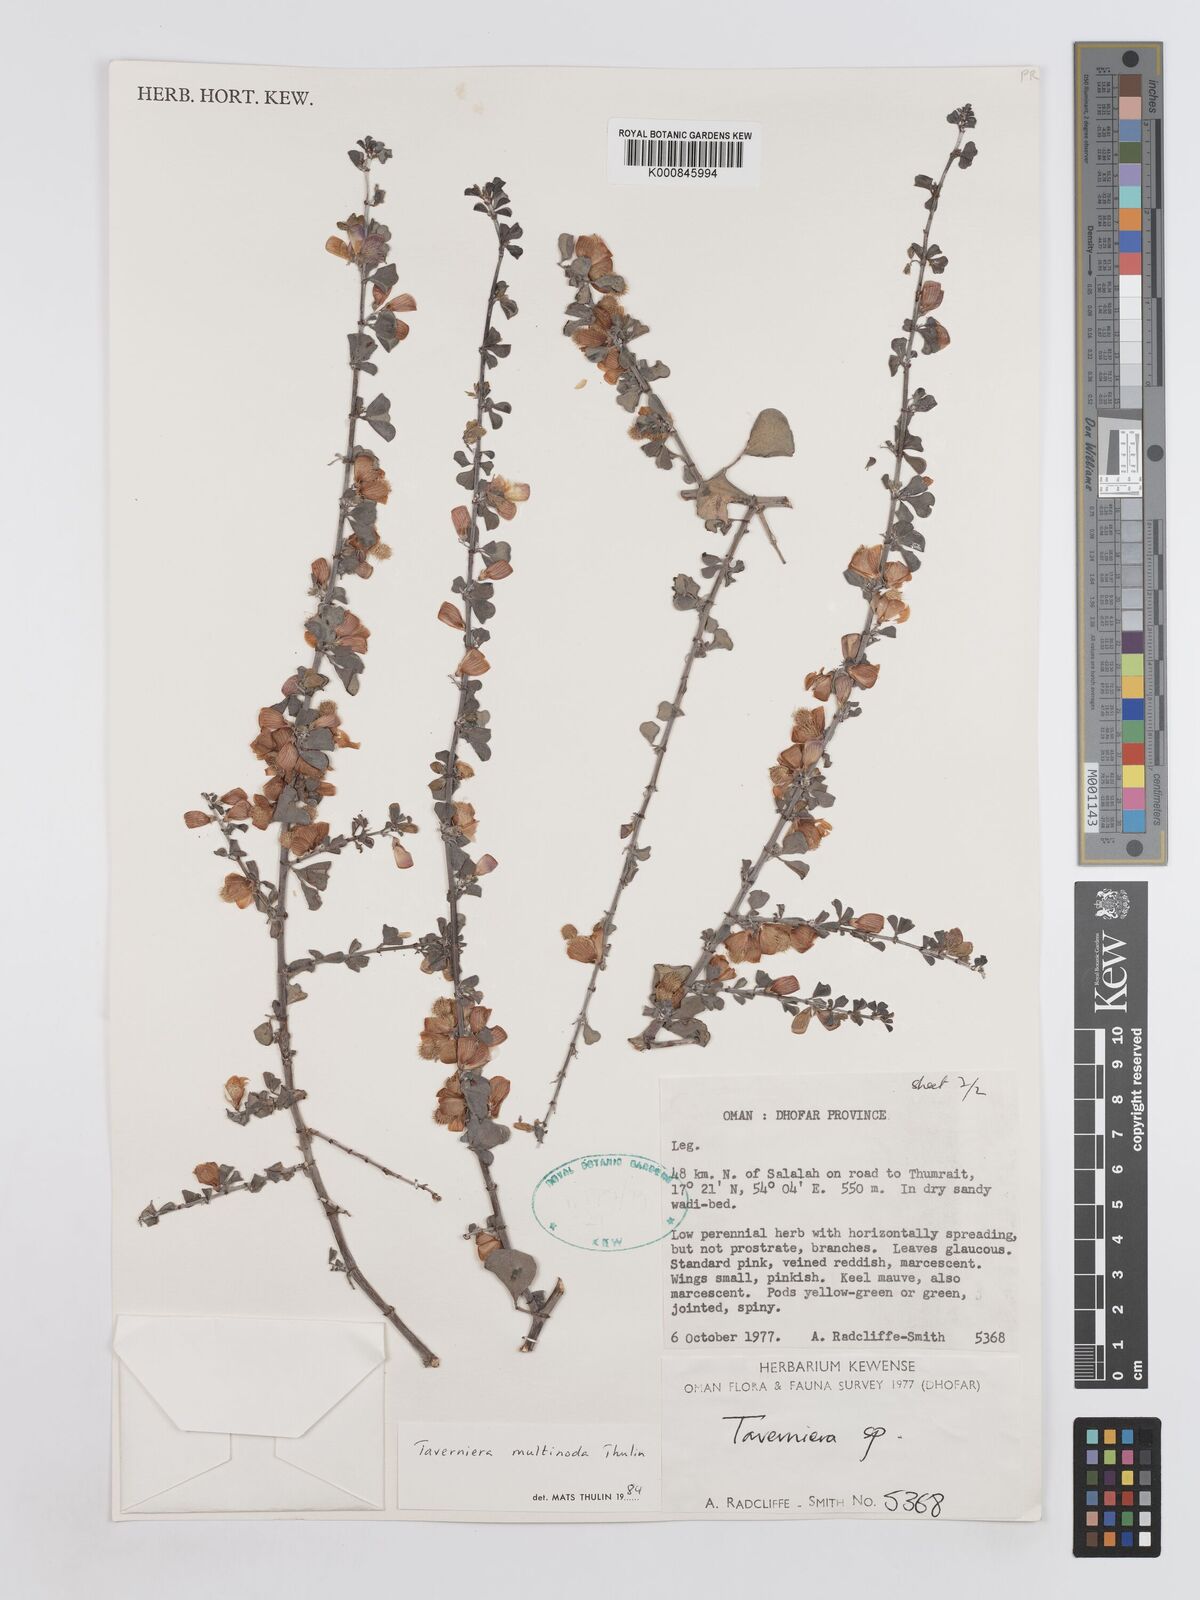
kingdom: Plantae
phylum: Tracheophyta
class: Magnoliopsida
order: Fabales
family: Fabaceae
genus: Taverniera
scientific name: Taverniera multinoda
